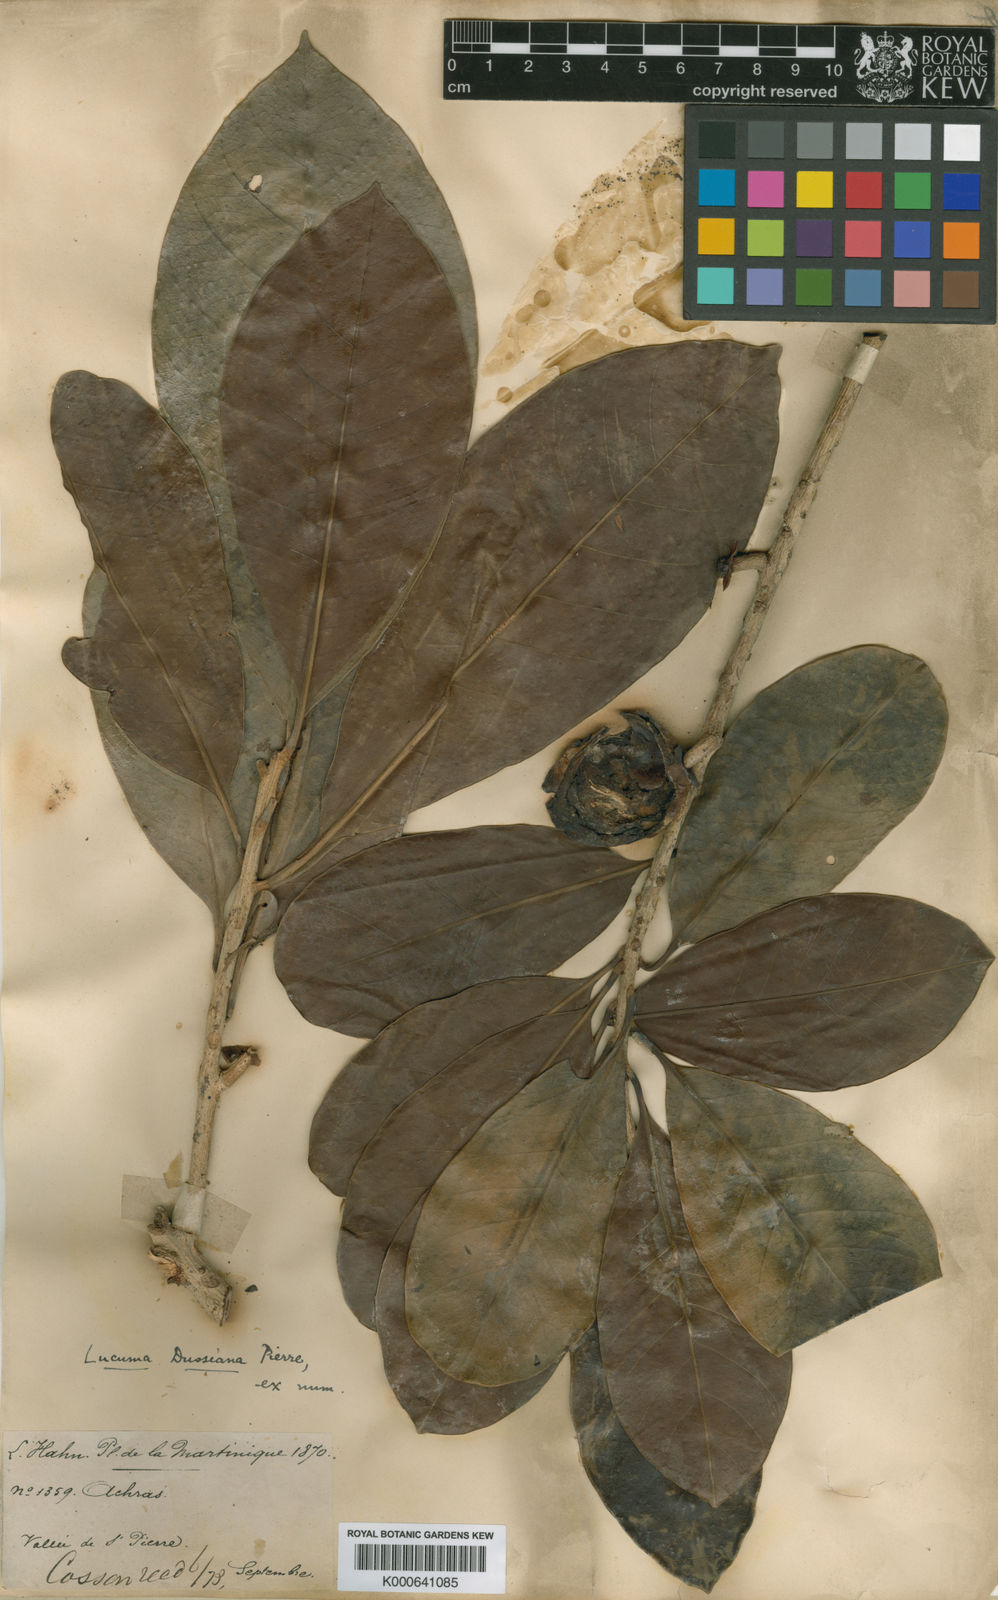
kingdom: Plantae
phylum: Tracheophyta
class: Magnoliopsida
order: Ericales
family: Sapotaceae
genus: Pouteria
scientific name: Pouteria
